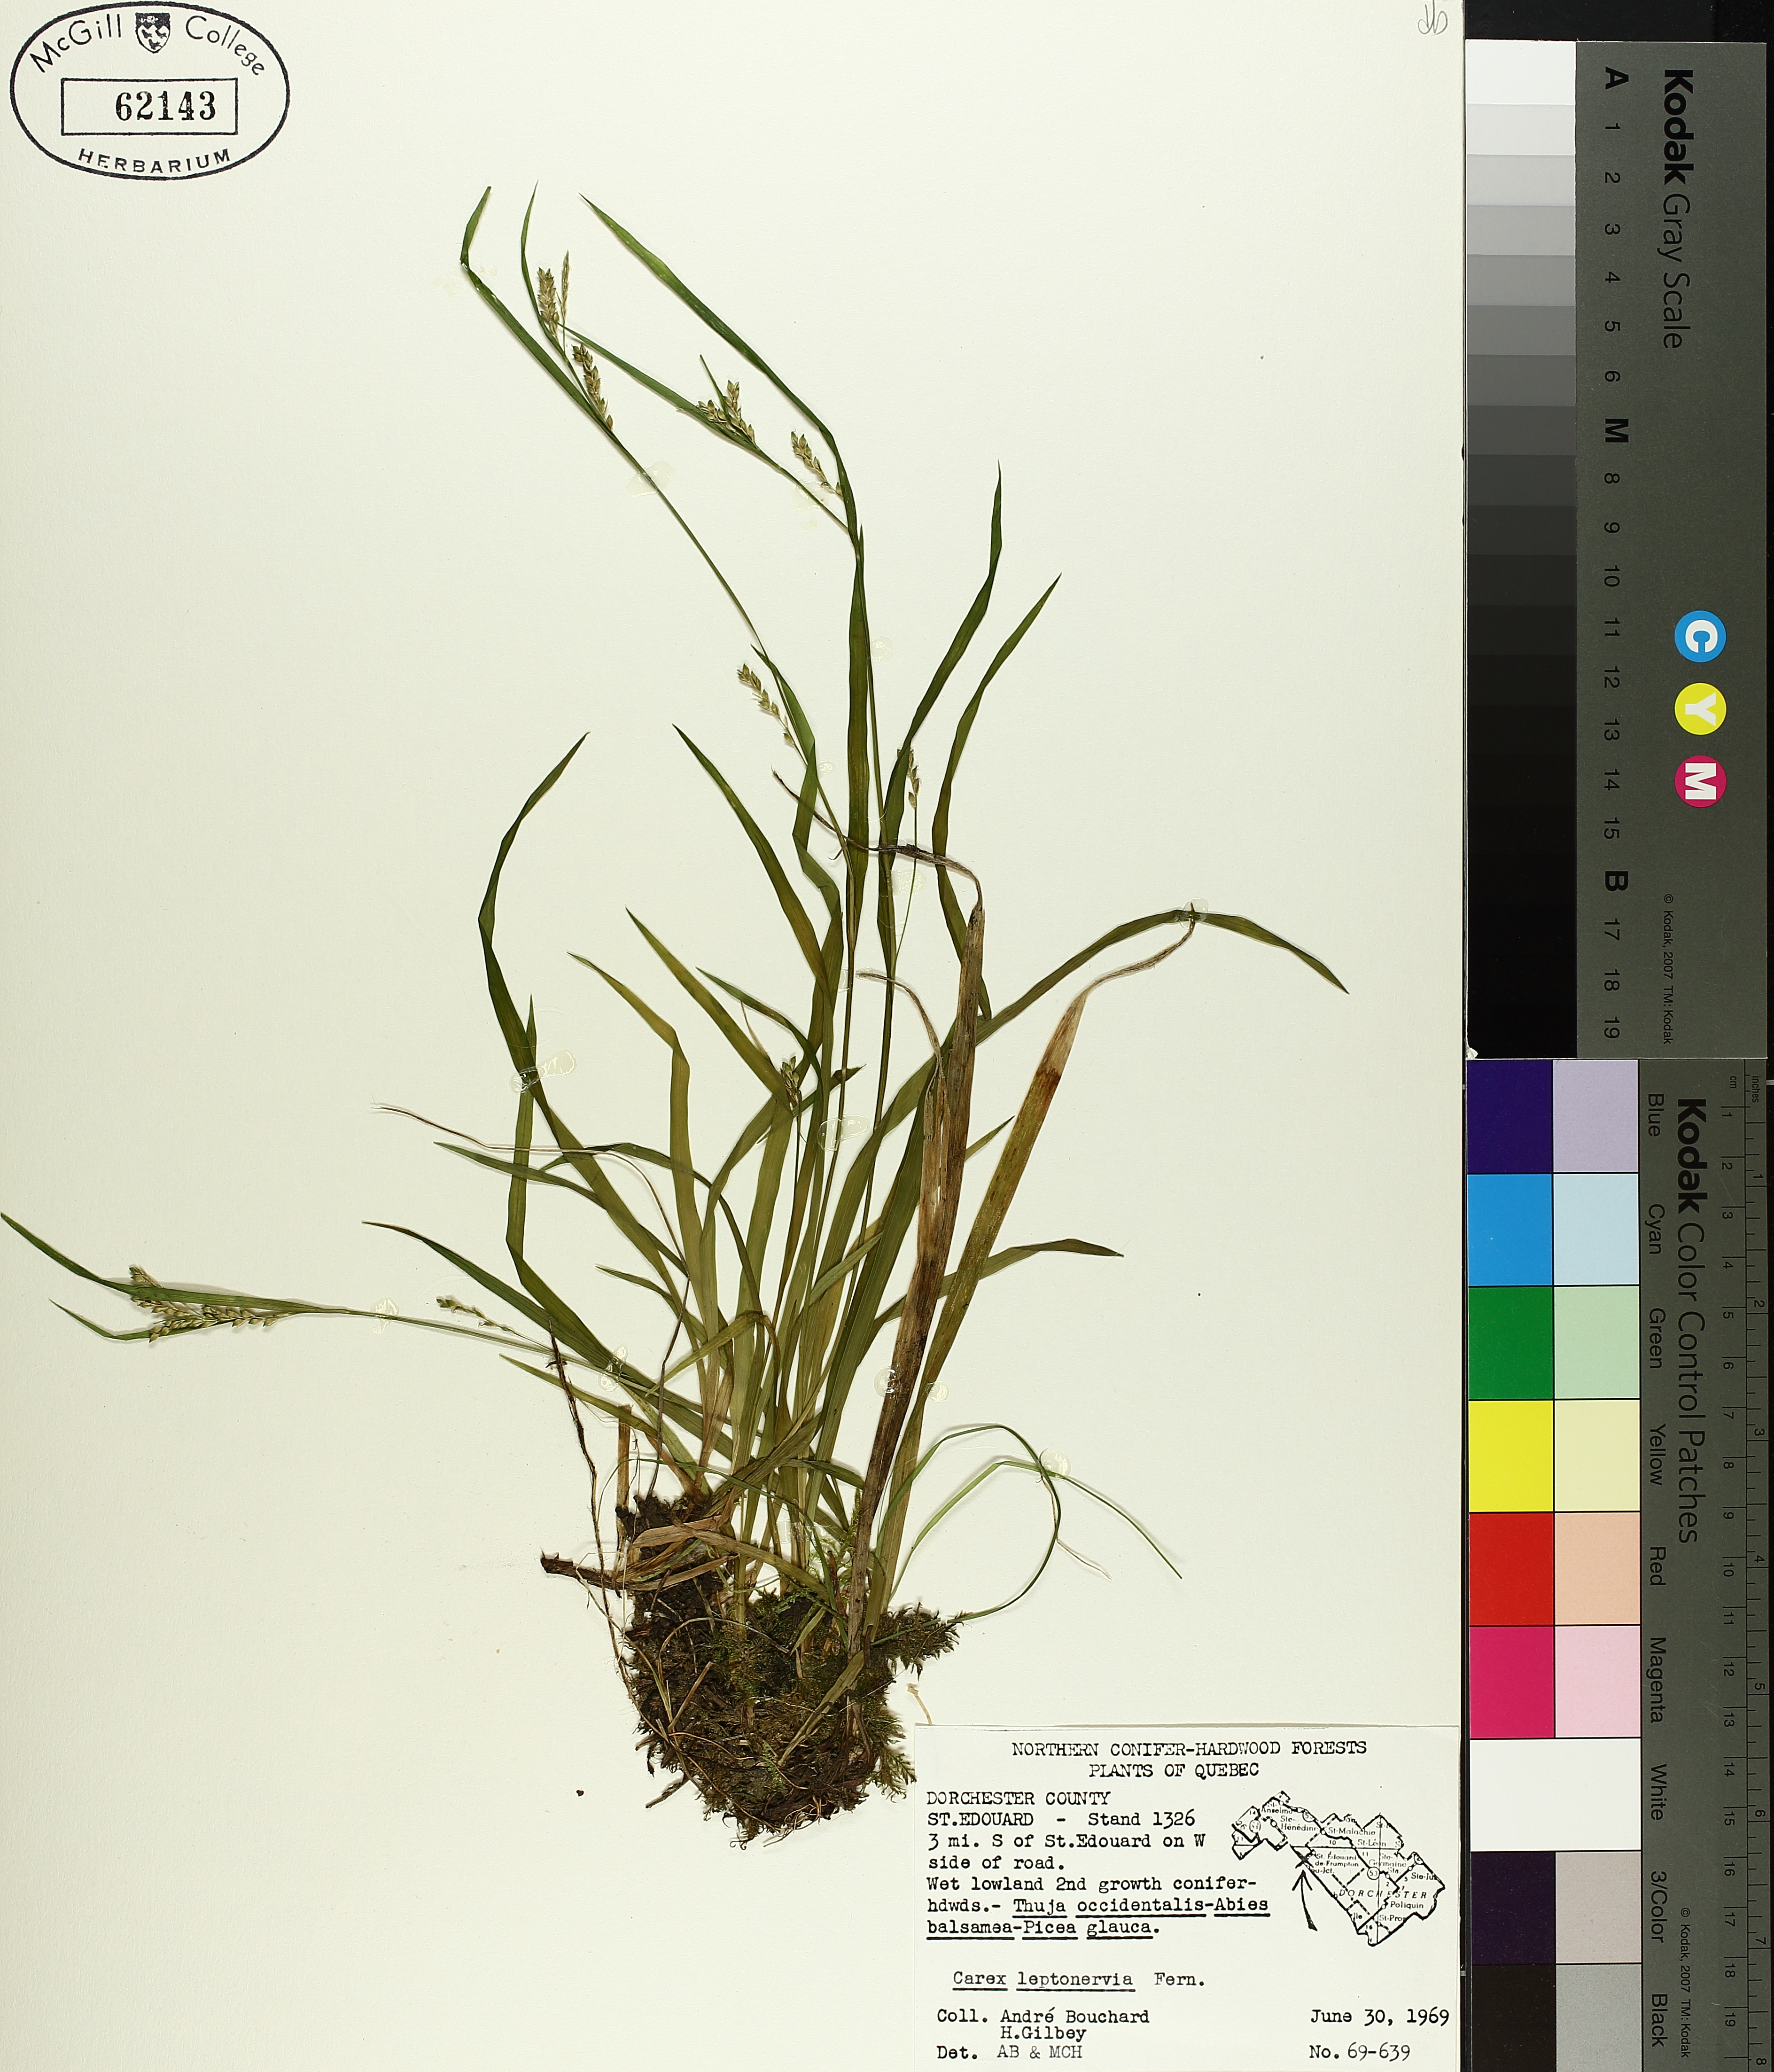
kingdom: Plantae
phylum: Tracheophyta
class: Liliopsida
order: Poales
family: Cyperaceae
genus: Carex
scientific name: Carex leptonervia
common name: Few-nerved wood sedge
